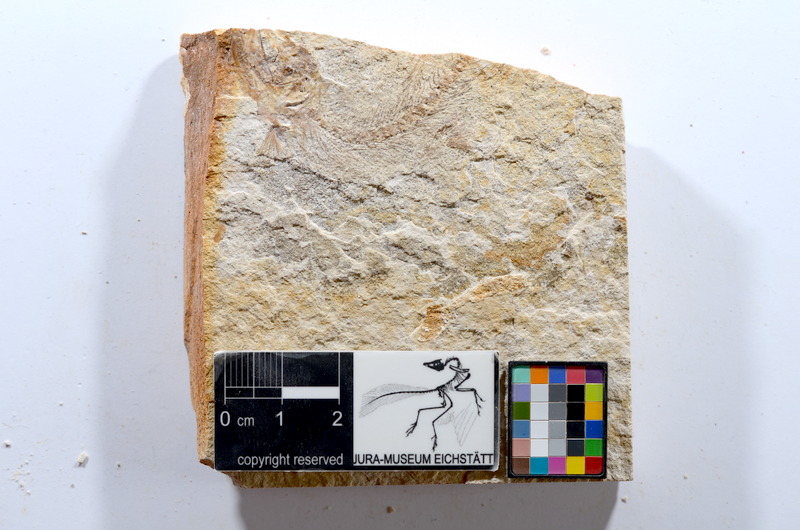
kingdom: Animalia
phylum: Chordata
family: Ascalaboidae
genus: Tharsis
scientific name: Tharsis dubius
